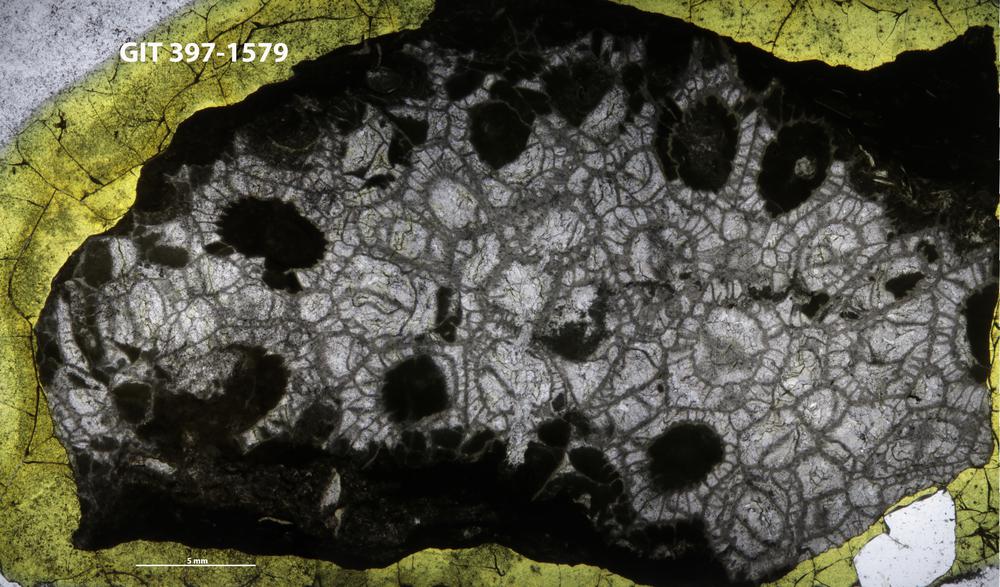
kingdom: Animalia
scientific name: Animalia
